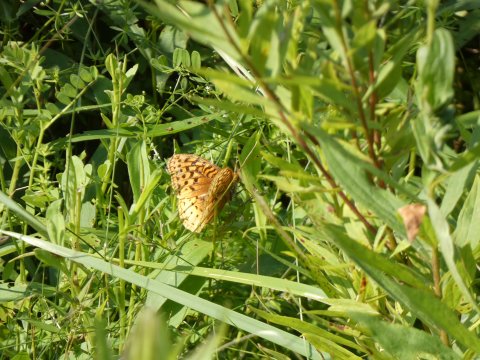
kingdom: Animalia
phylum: Arthropoda
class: Insecta
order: Lepidoptera
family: Nymphalidae
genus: Speyeria
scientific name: Speyeria cybele
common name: Great Spangled Fritillary
